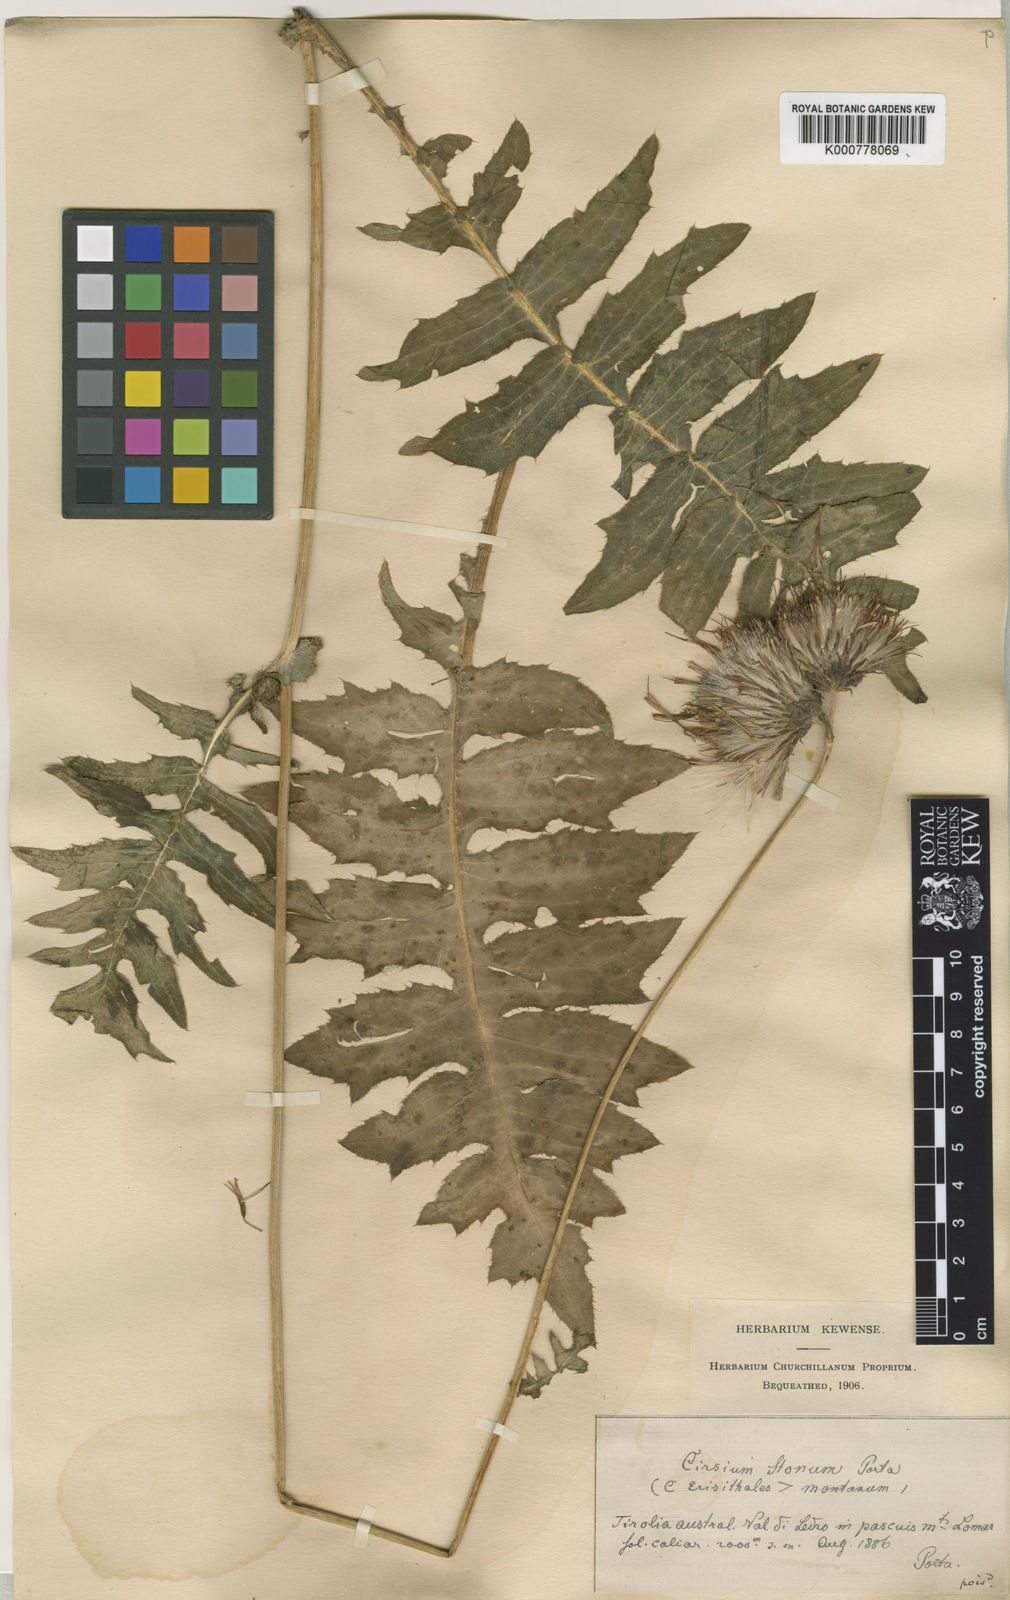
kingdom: Plantae
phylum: Tracheophyta
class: Magnoliopsida
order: Asterales
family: Asteraceae
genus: Cirsium
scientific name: Cirsium erisithales
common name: Yellow thistle
